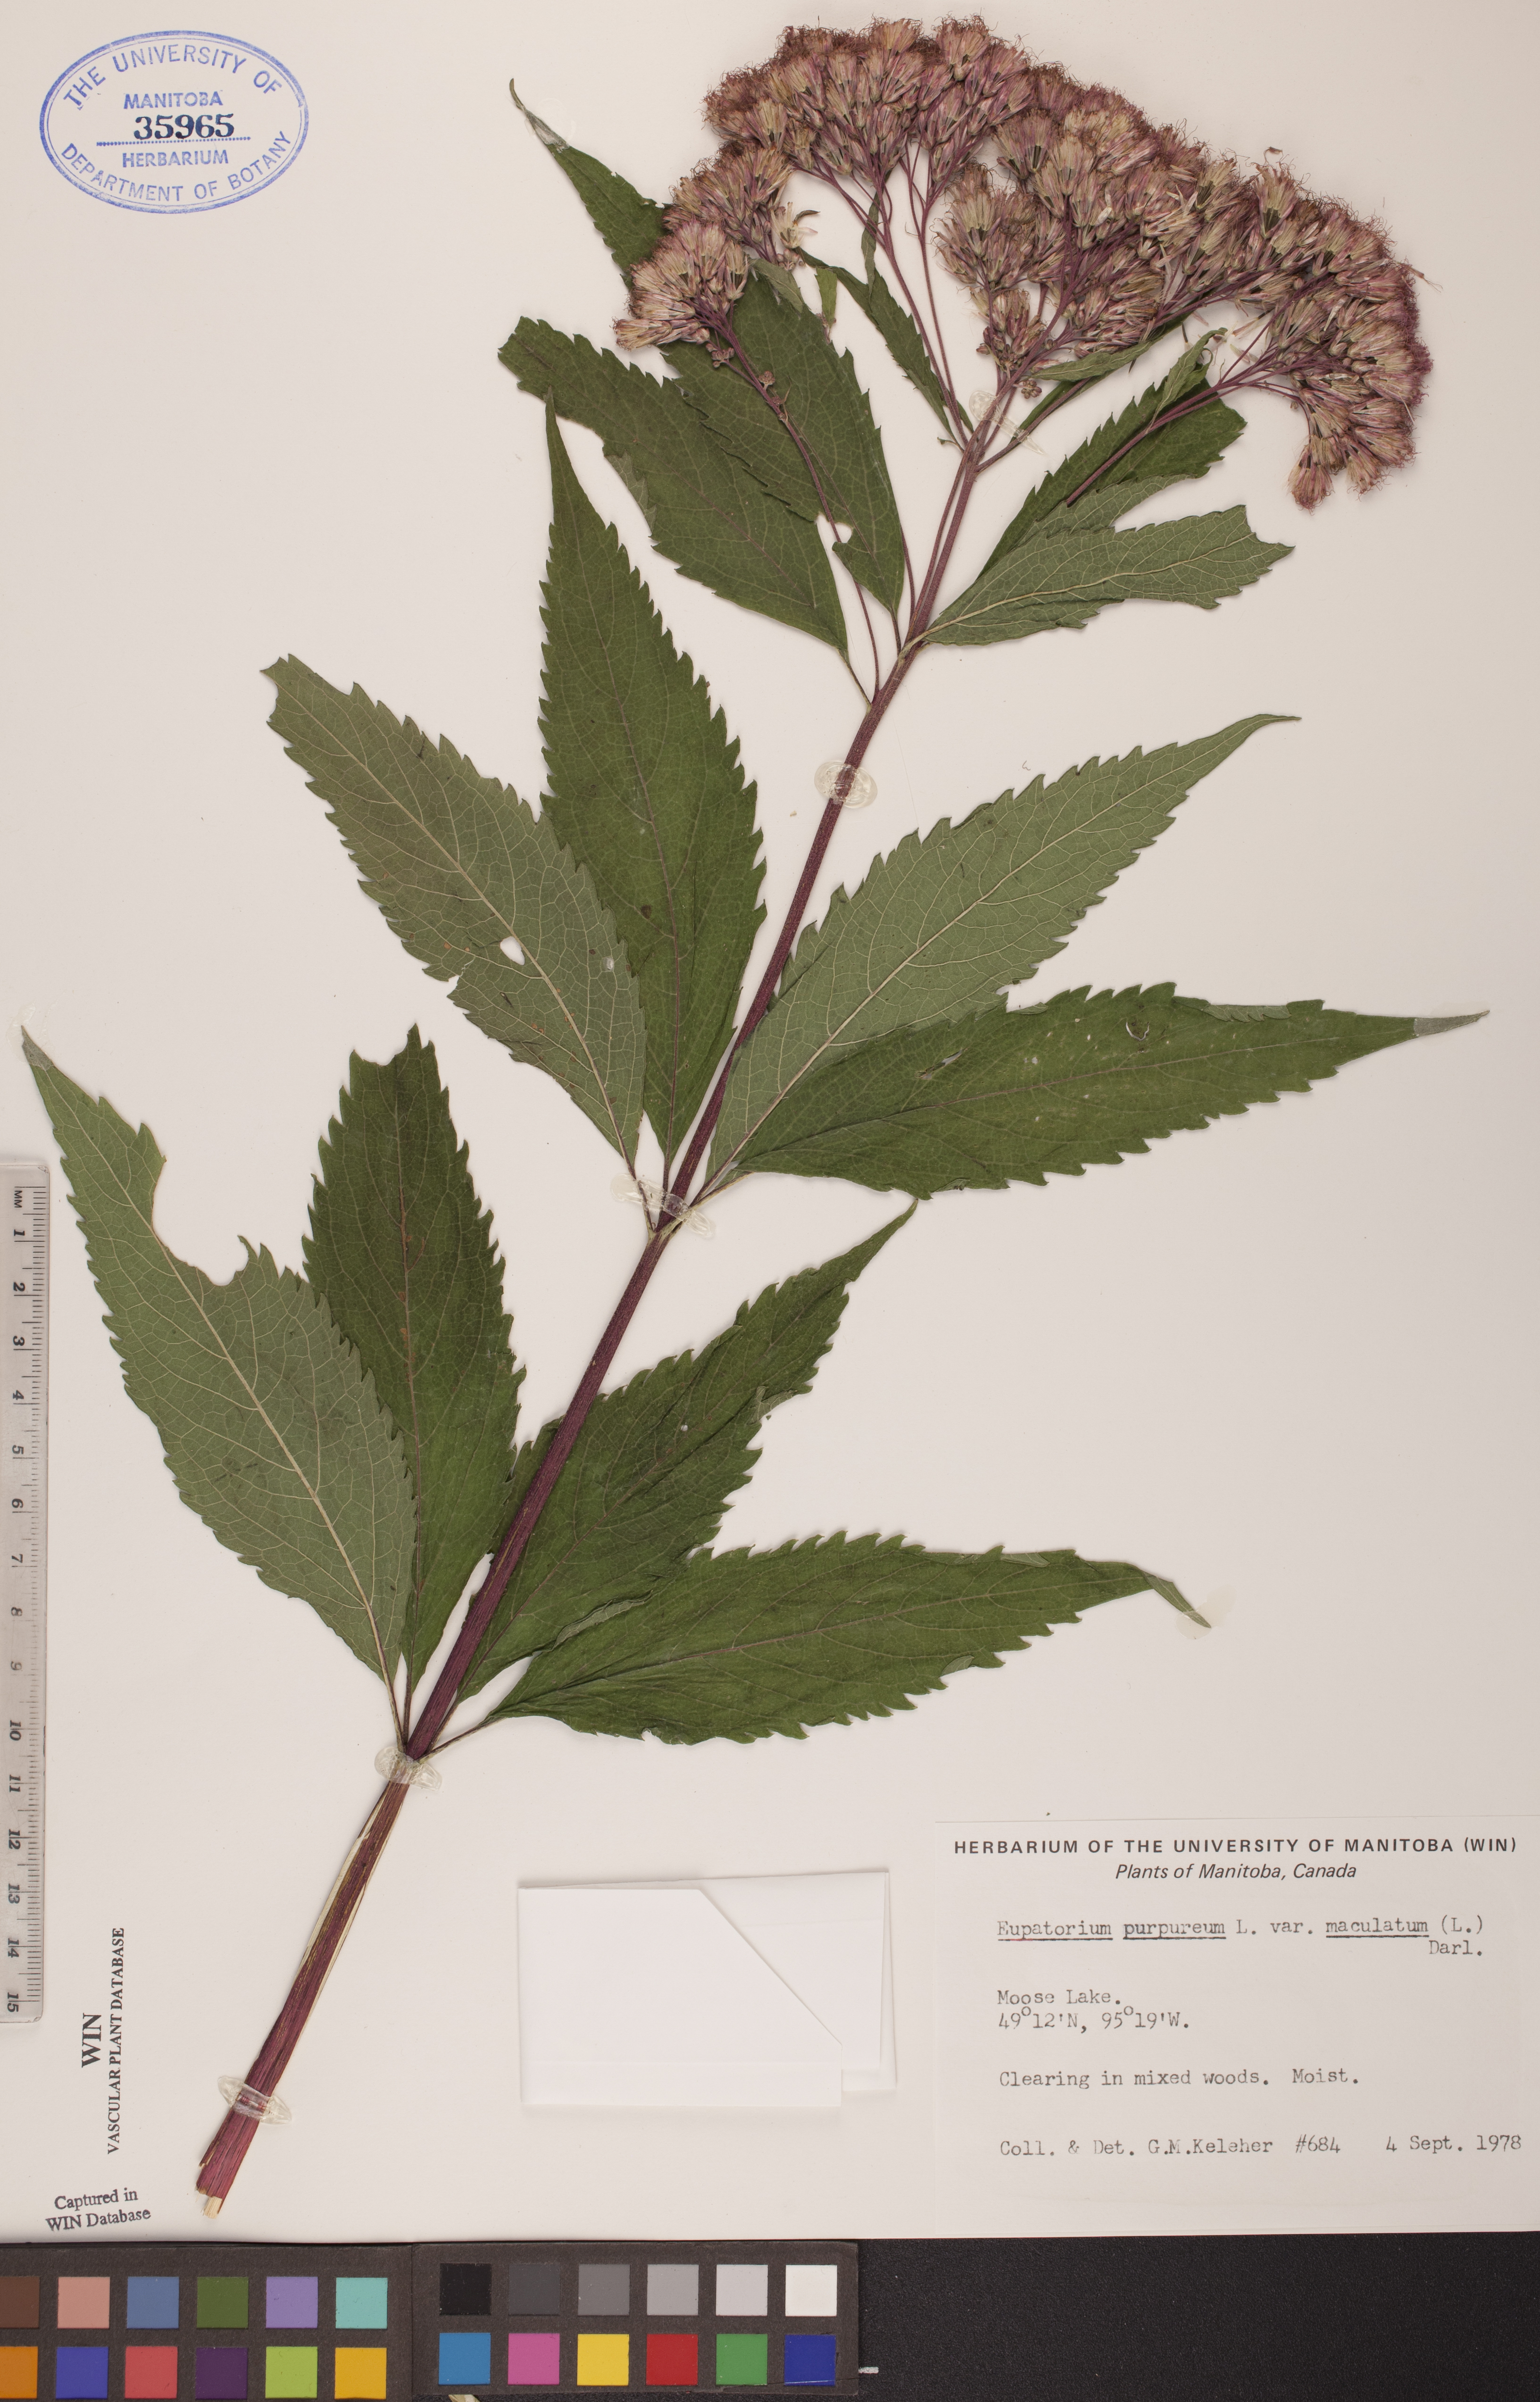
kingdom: Plantae
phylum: Tracheophyta
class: Magnoliopsida
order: Asterales
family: Asteraceae
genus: Eutrochium
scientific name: Eutrochium maculatum
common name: Spotted joe pye weed
